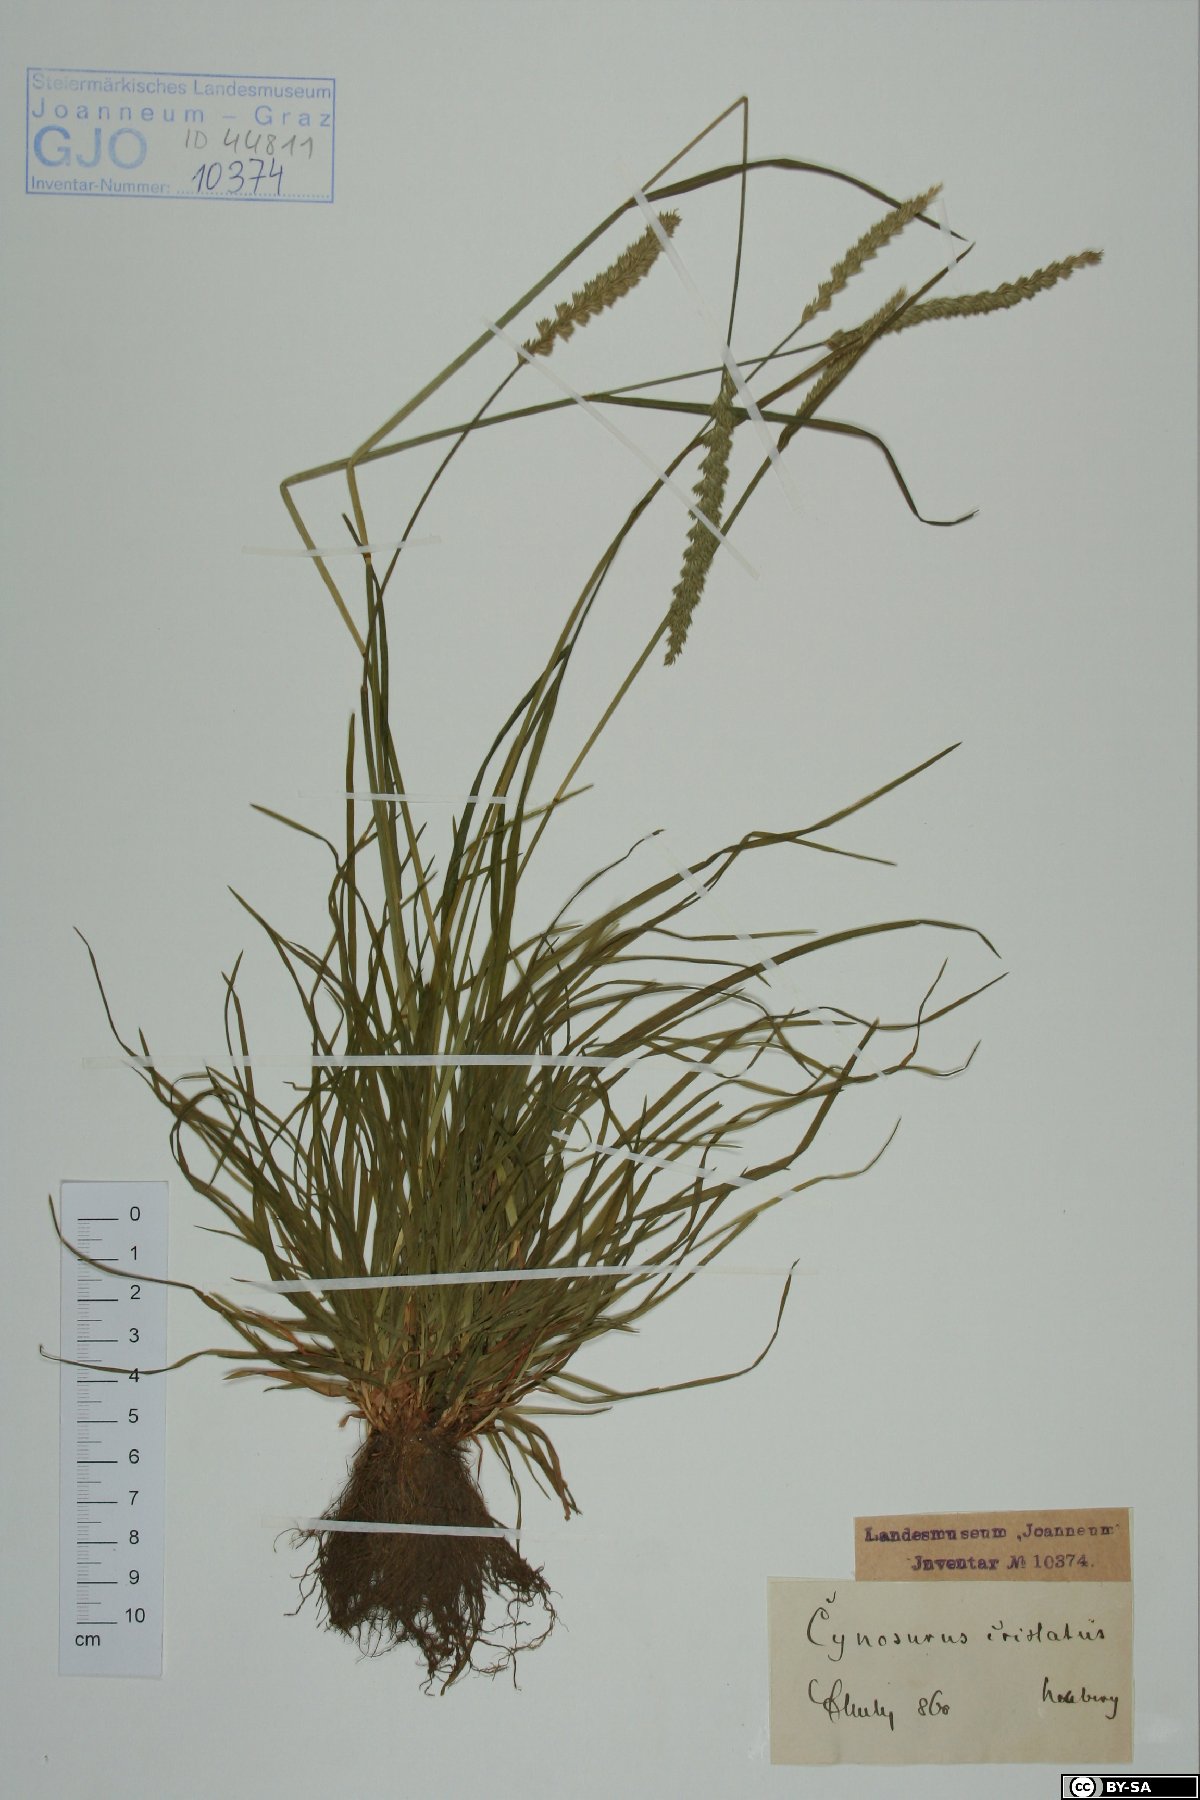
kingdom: Plantae
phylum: Tracheophyta
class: Liliopsida
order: Poales
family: Poaceae
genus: Cynosurus
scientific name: Cynosurus cristatus
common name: Crested dog's-tail
